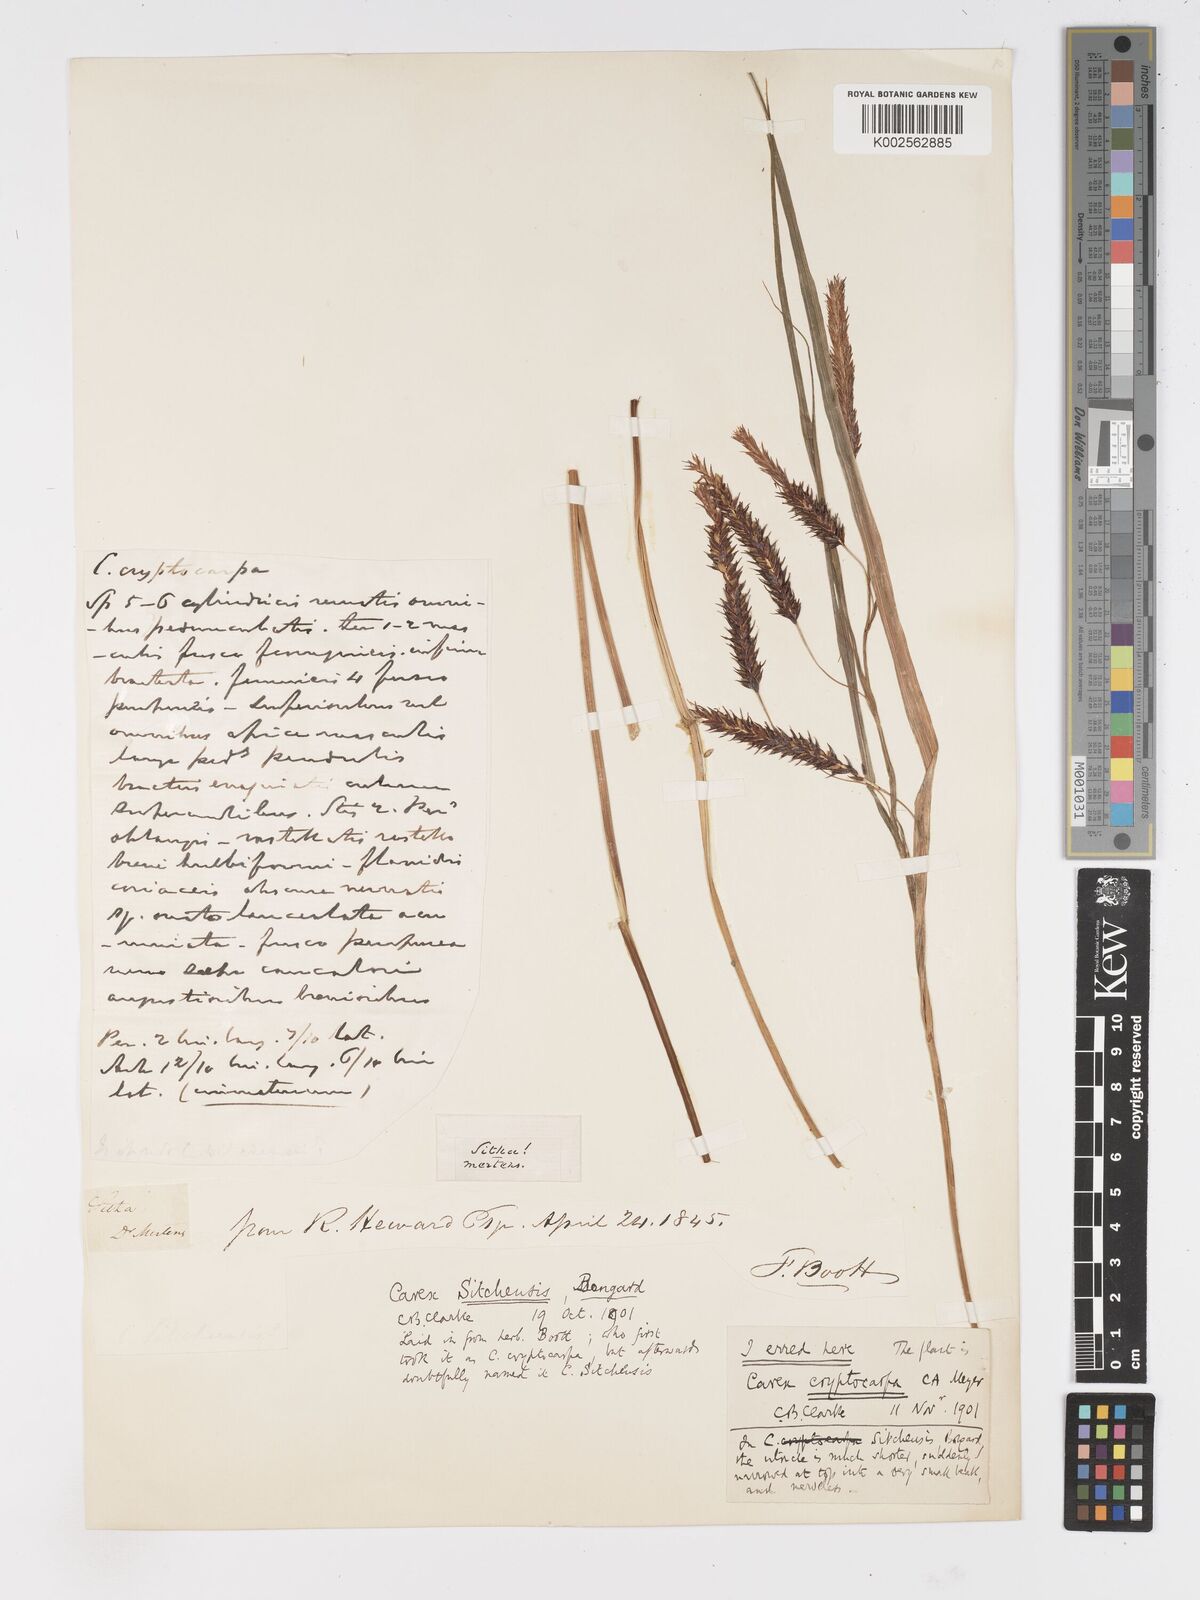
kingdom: Plantae
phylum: Tracheophyta
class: Liliopsida
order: Poales
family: Cyperaceae
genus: Carex
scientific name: Carex lyngbyei
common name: Lyngbye's sedge
